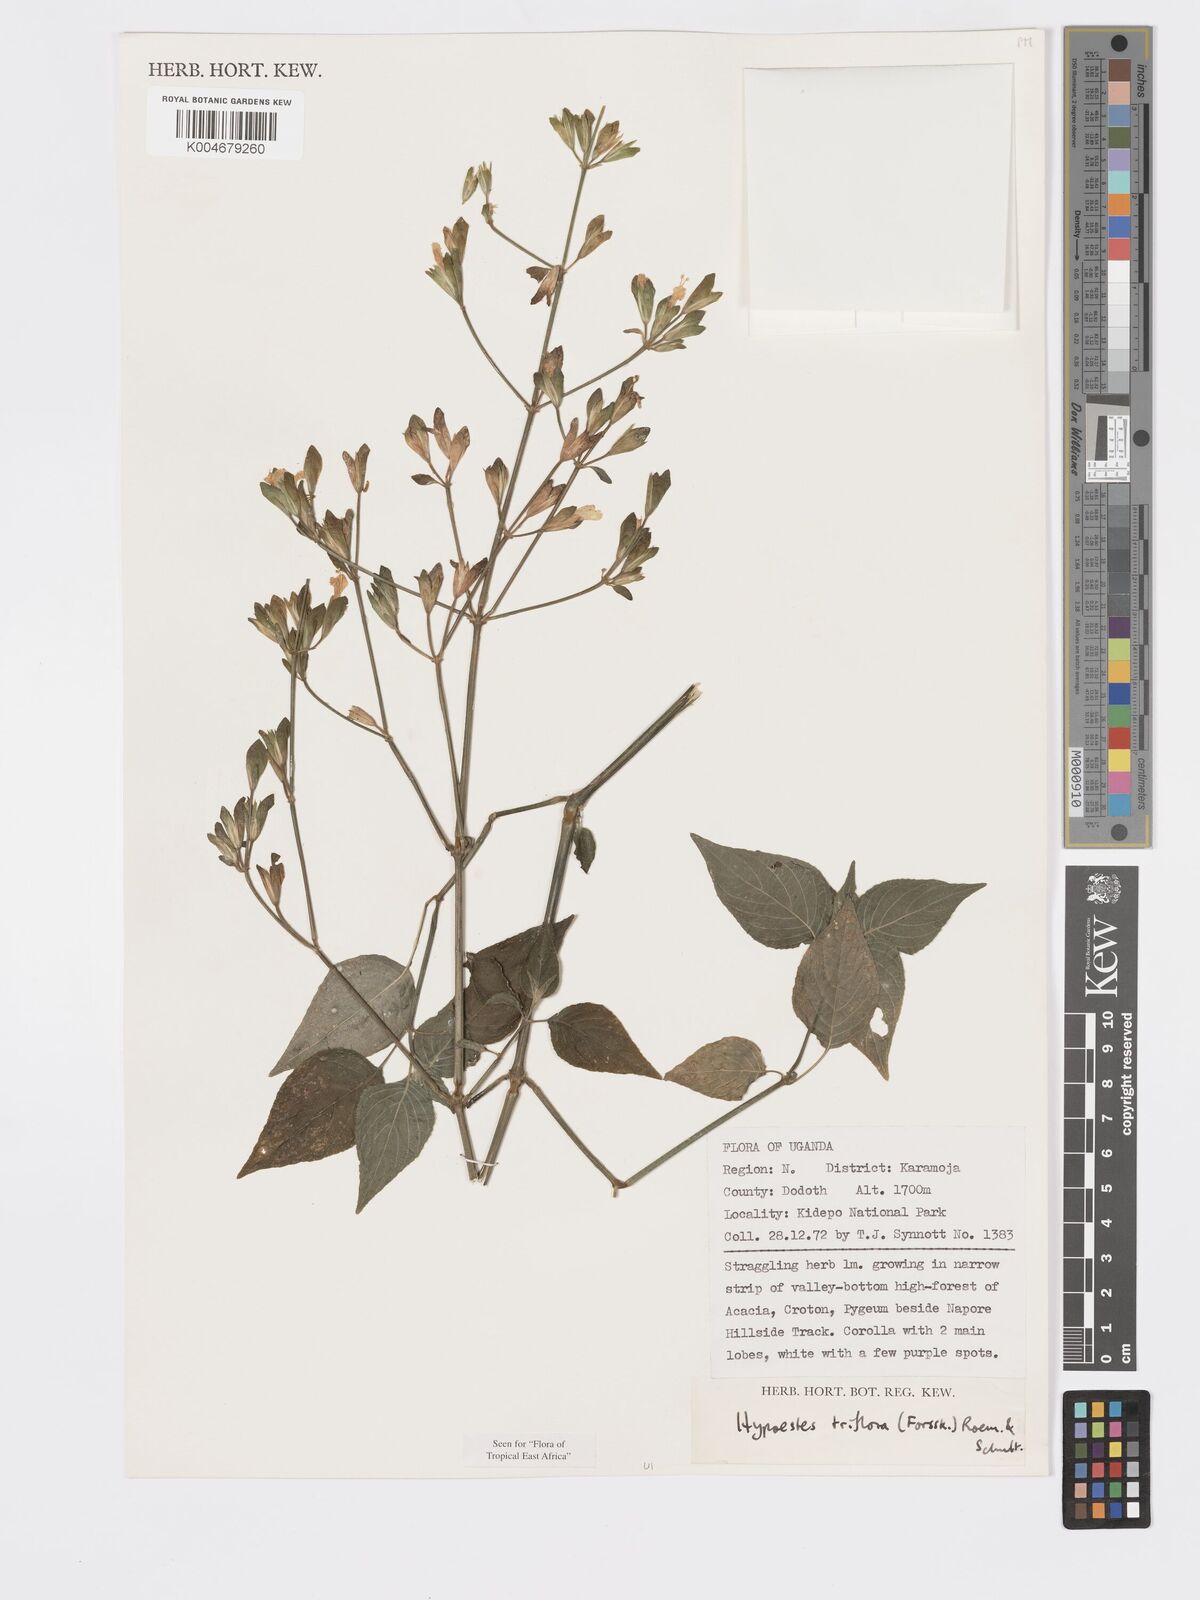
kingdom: Plantae
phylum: Tracheophyta
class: Magnoliopsida
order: Lamiales
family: Acanthaceae
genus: Hypoestes
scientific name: Hypoestes triflora
